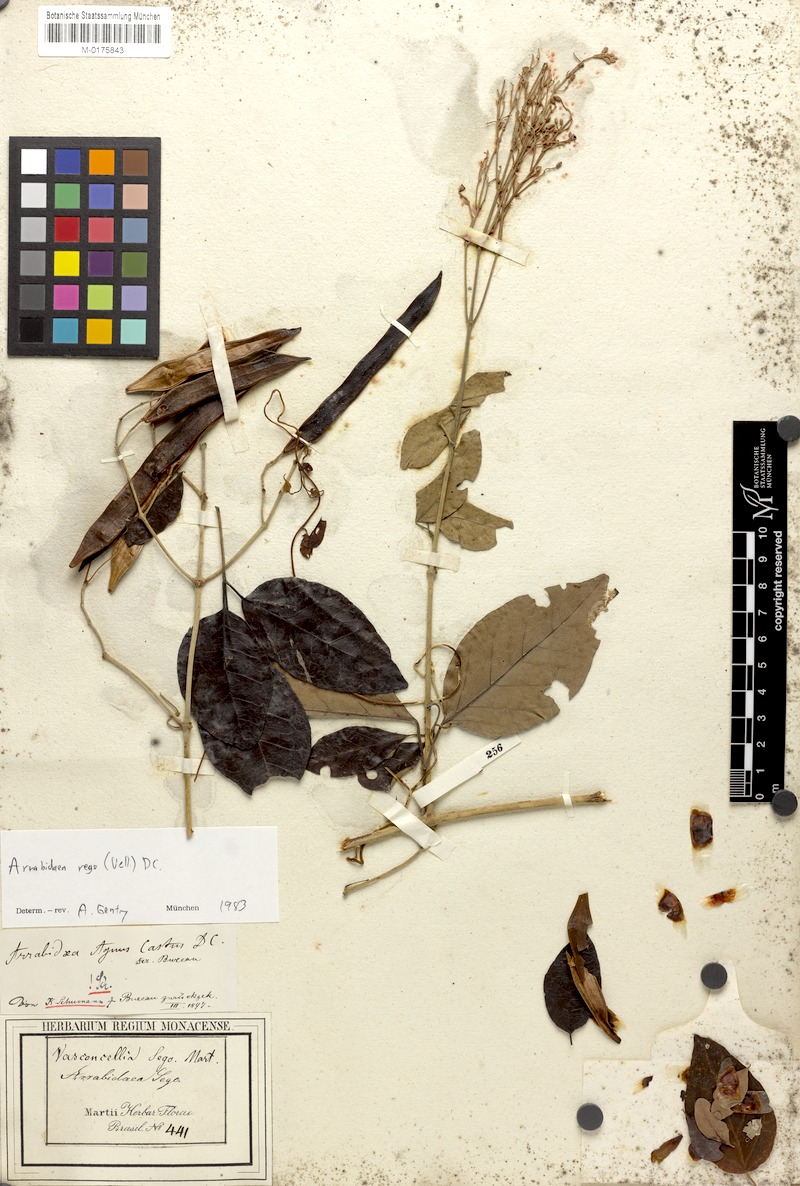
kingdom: Plantae
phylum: Tracheophyta
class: Magnoliopsida
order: Lamiales
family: Bignoniaceae
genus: Fridericia
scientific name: Fridericia rego
